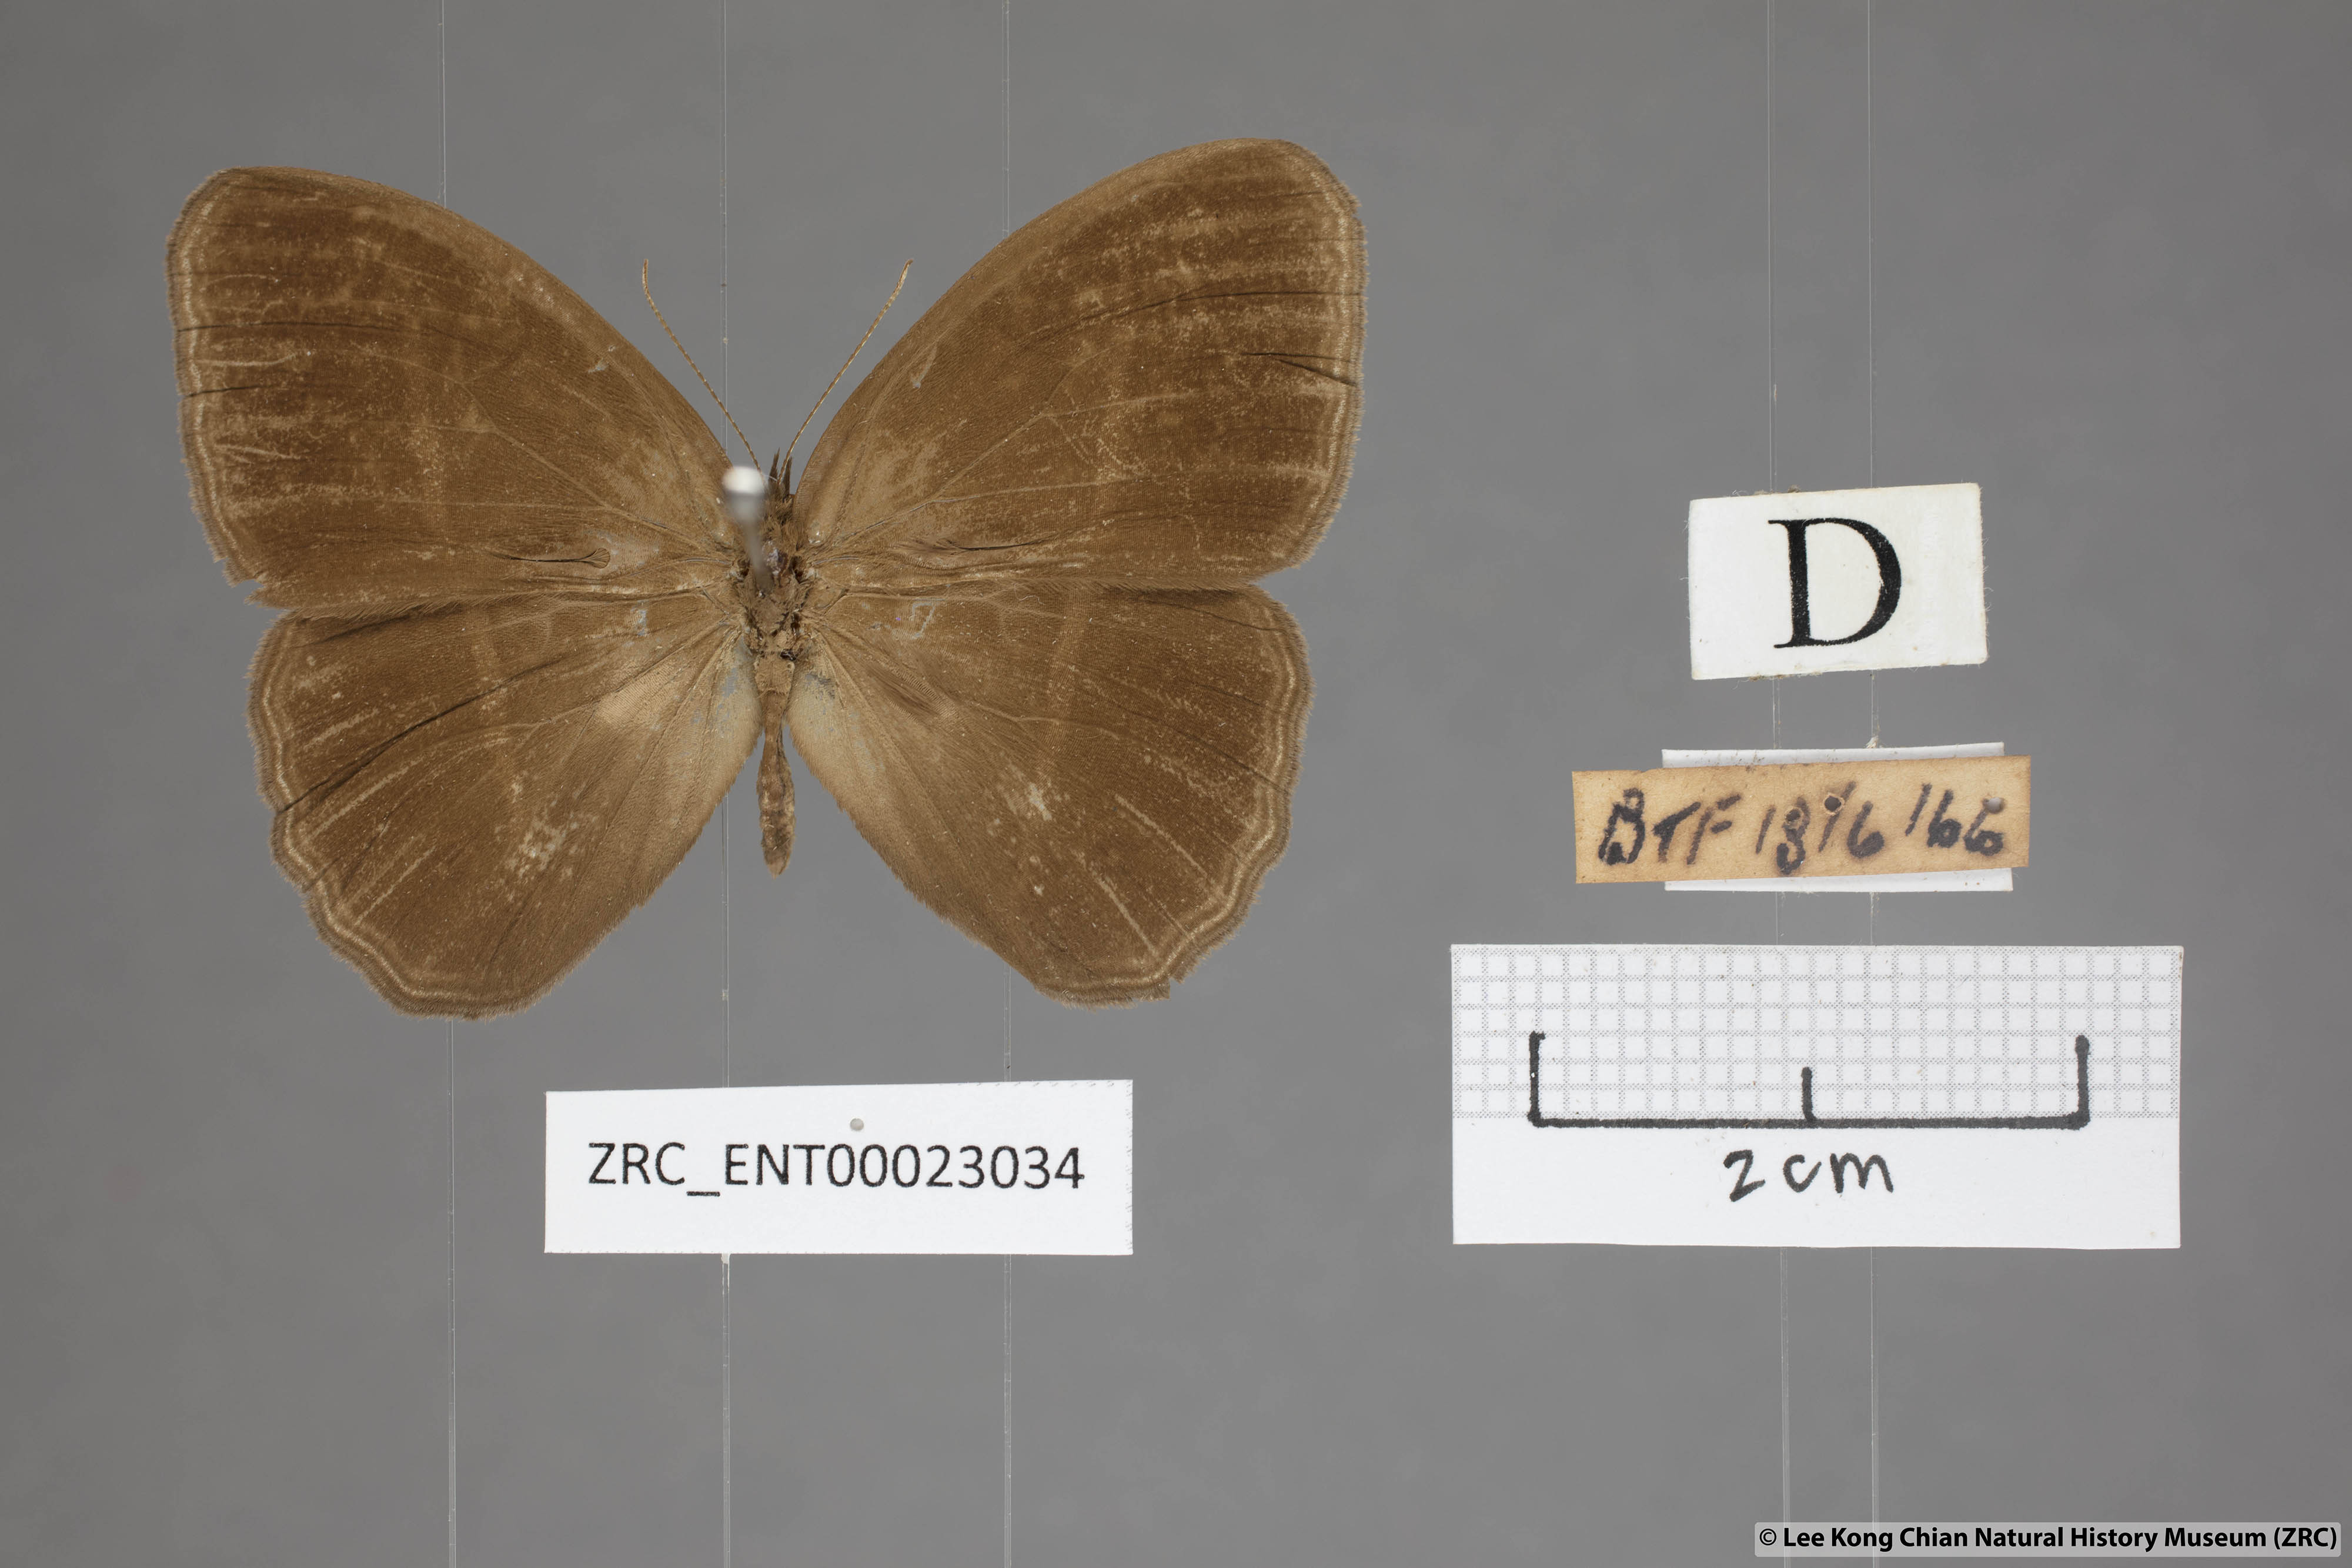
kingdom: Animalia
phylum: Arthropoda
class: Insecta
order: Lepidoptera
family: Nymphalidae
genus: Orsotriaena
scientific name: Orsotriaena medus
